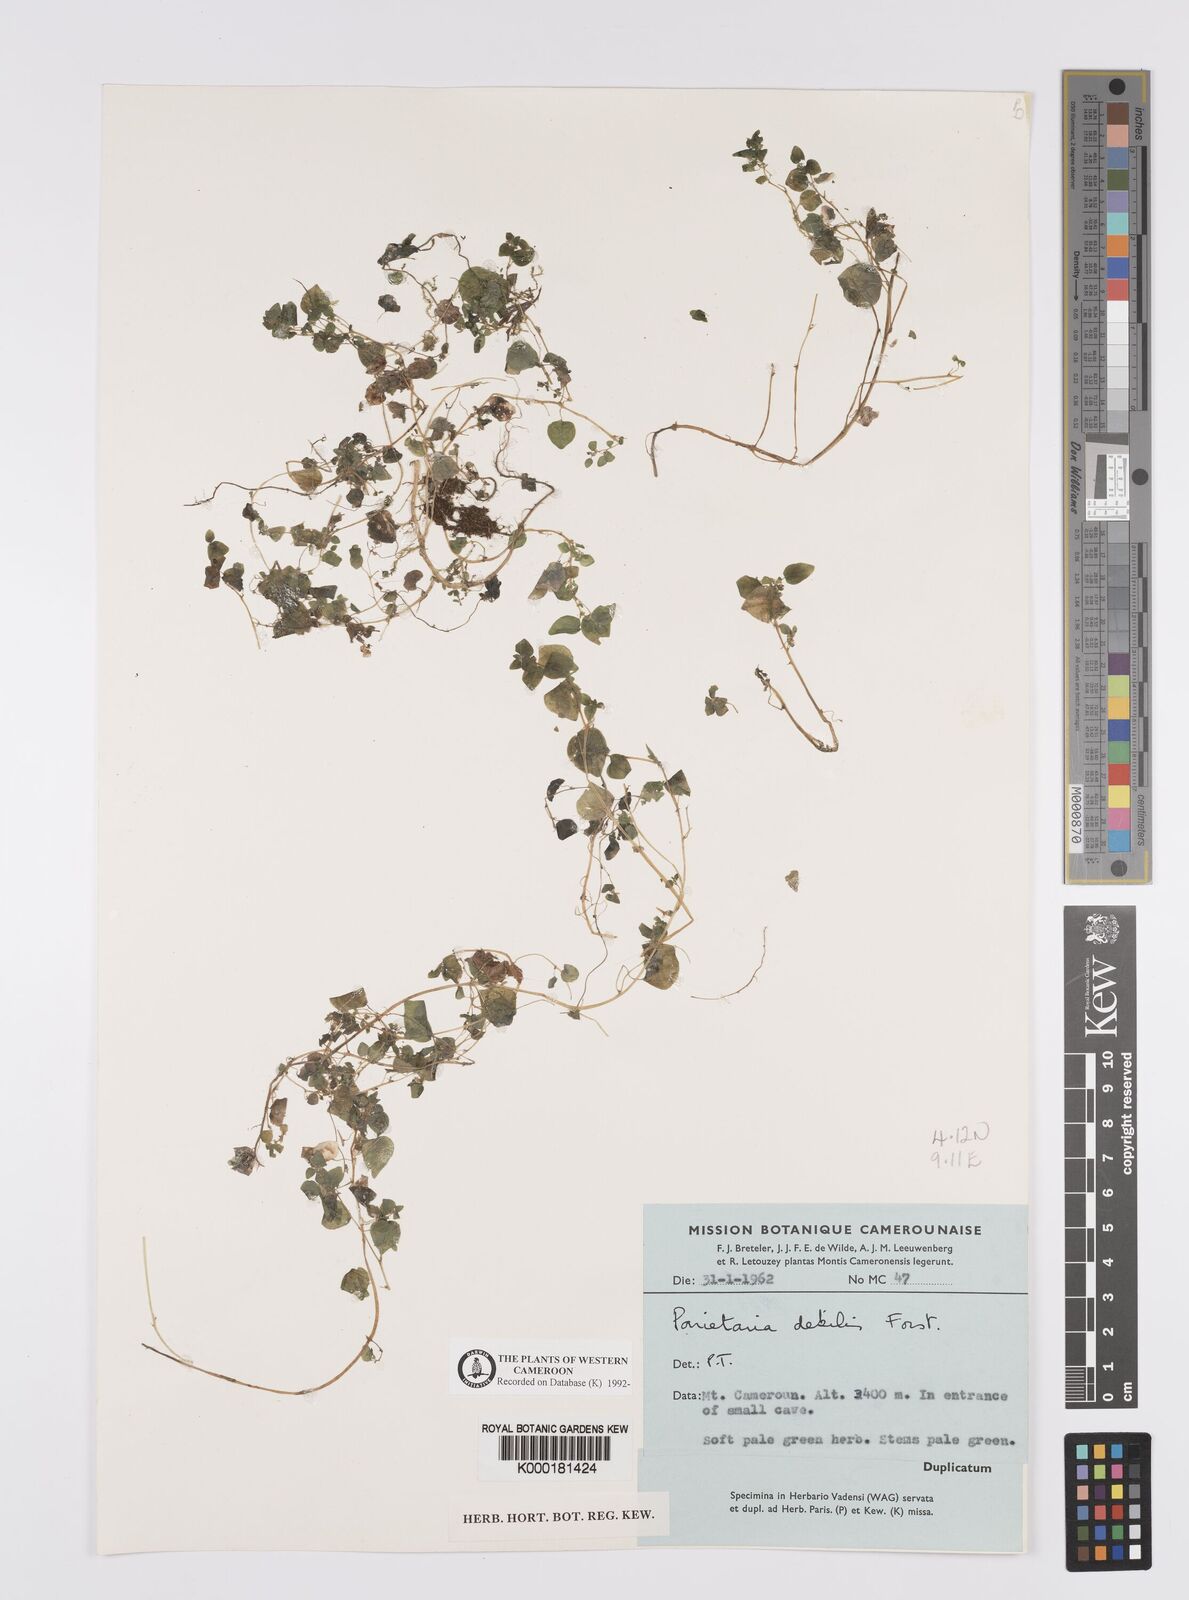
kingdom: Plantae
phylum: Tracheophyta
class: Magnoliopsida
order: Rosales
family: Urticaceae
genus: Parietaria
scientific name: Parietaria debilis
